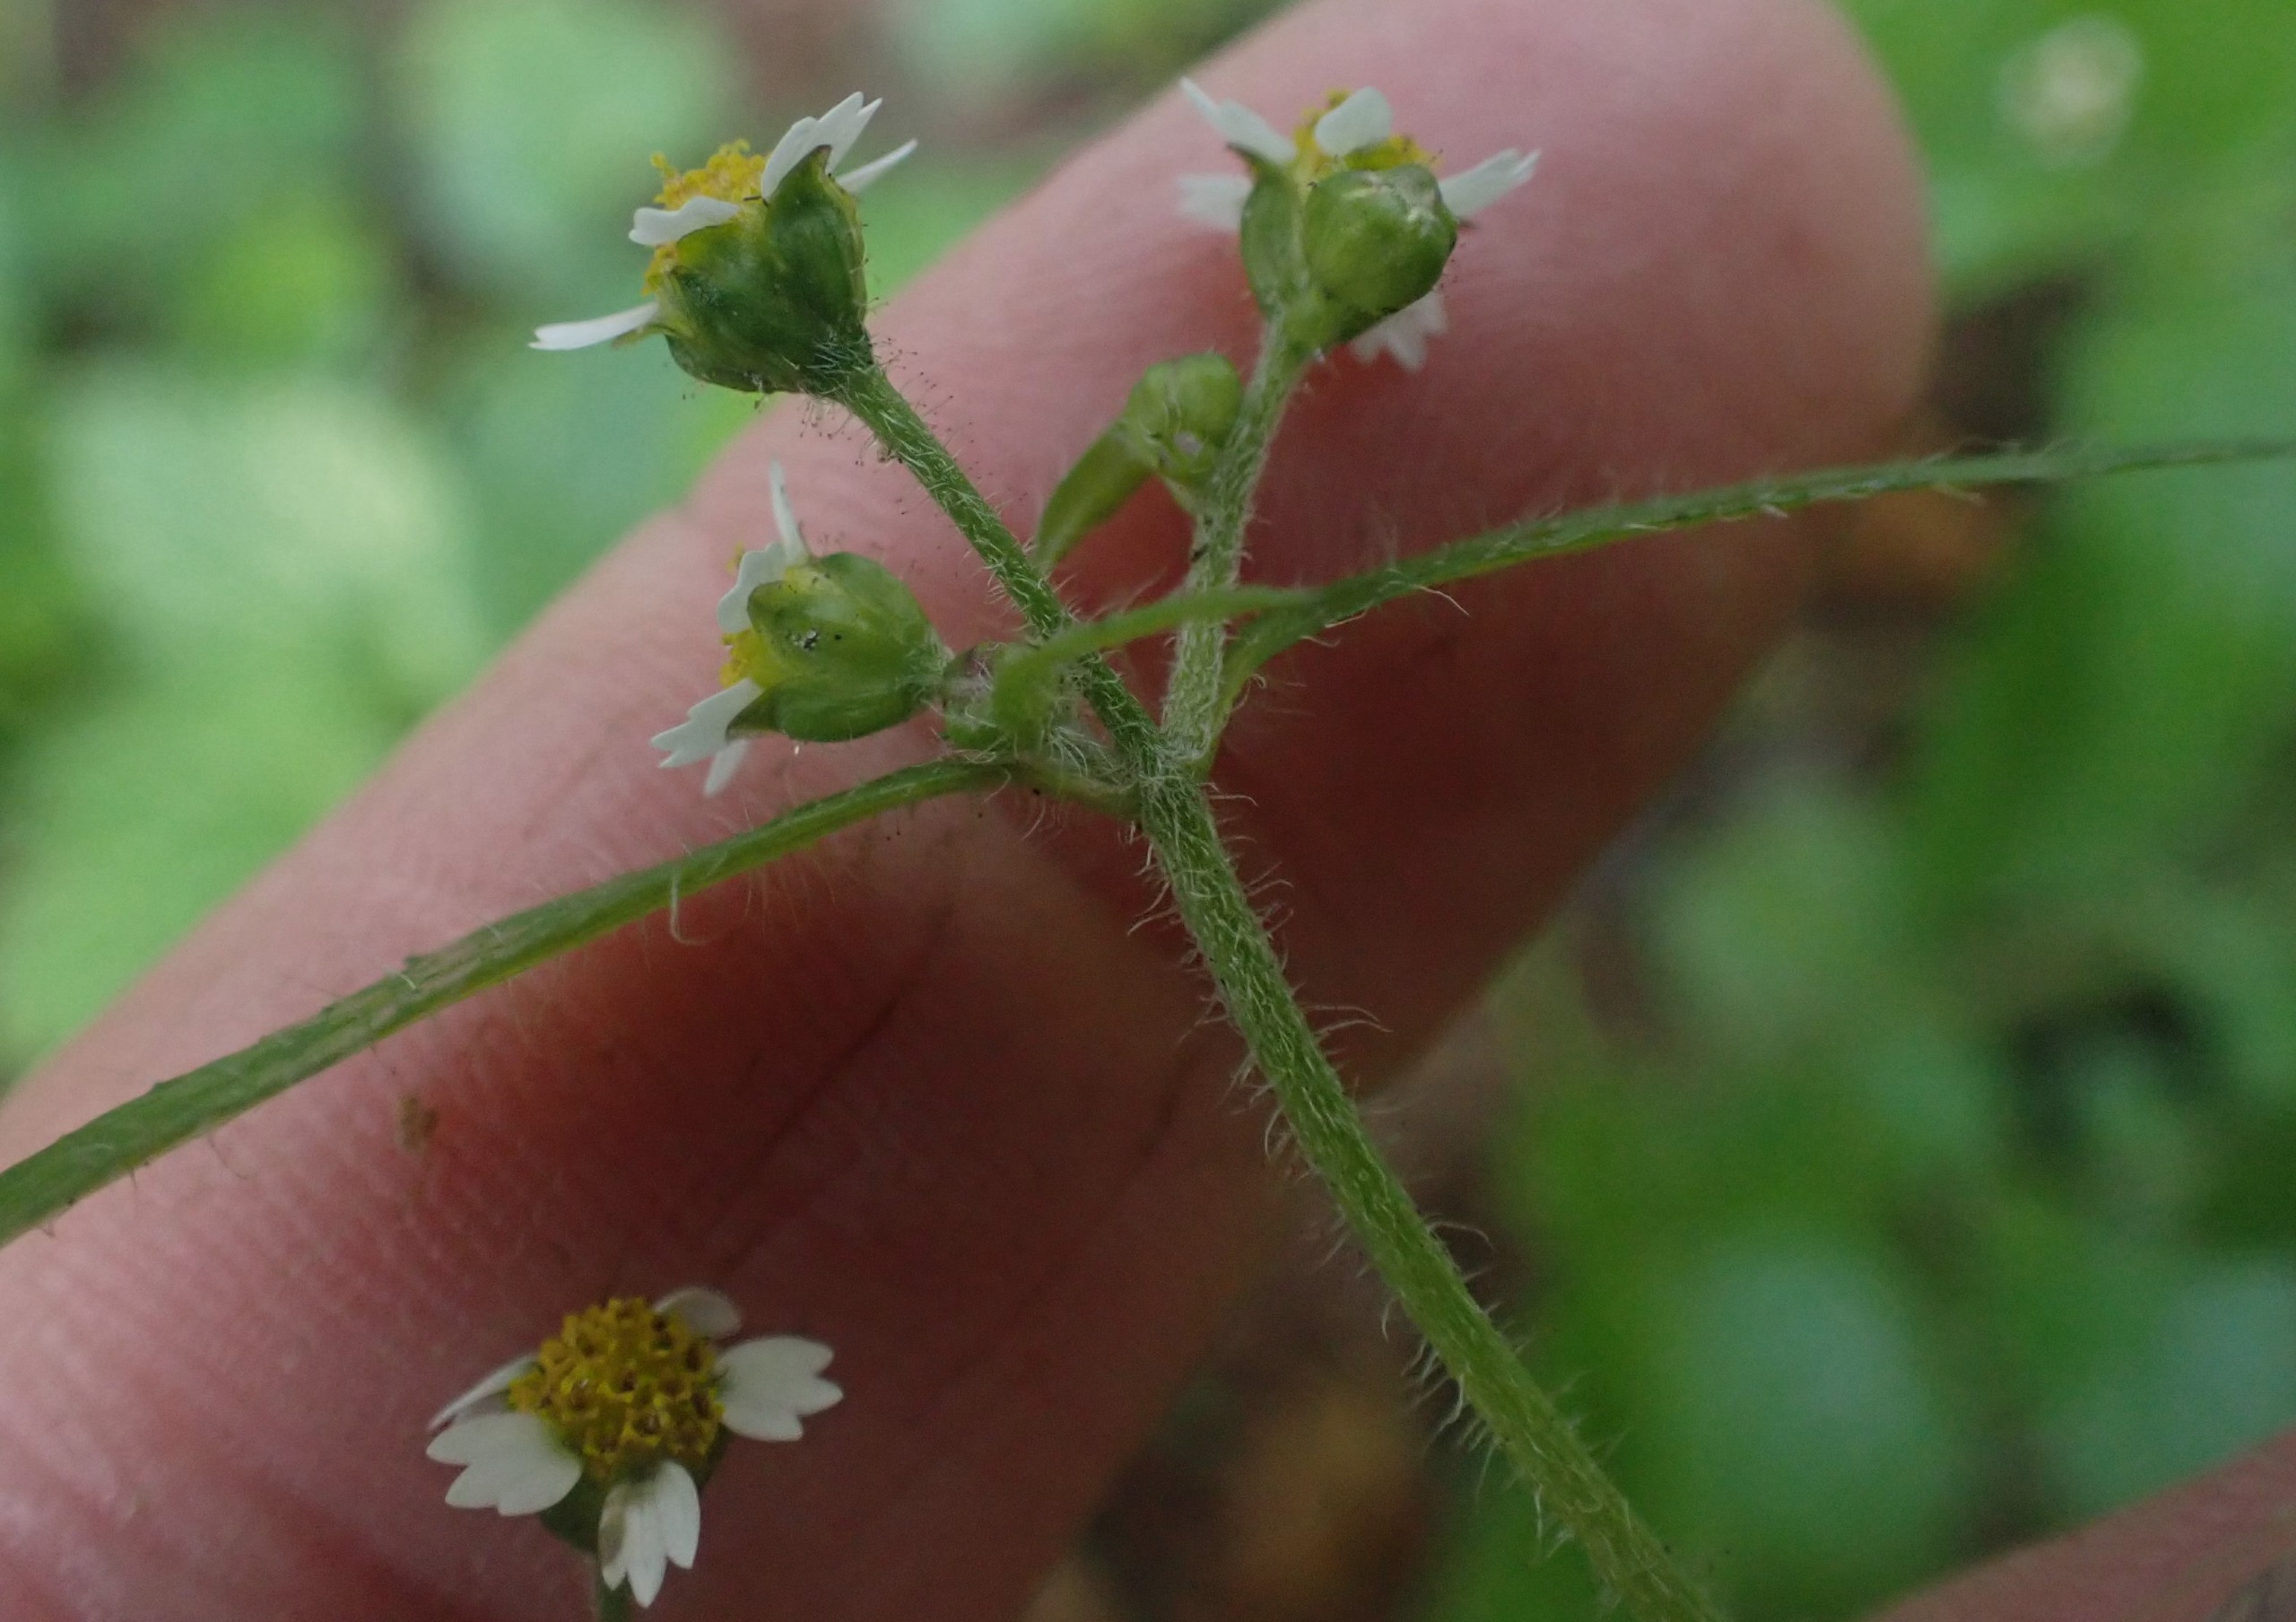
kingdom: Plantae
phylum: Tracheophyta
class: Magnoliopsida
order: Asterales
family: Asteraceae
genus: Galinsoga
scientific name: Galinsoga quadriradiata
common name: Kirtel-kortstråle
